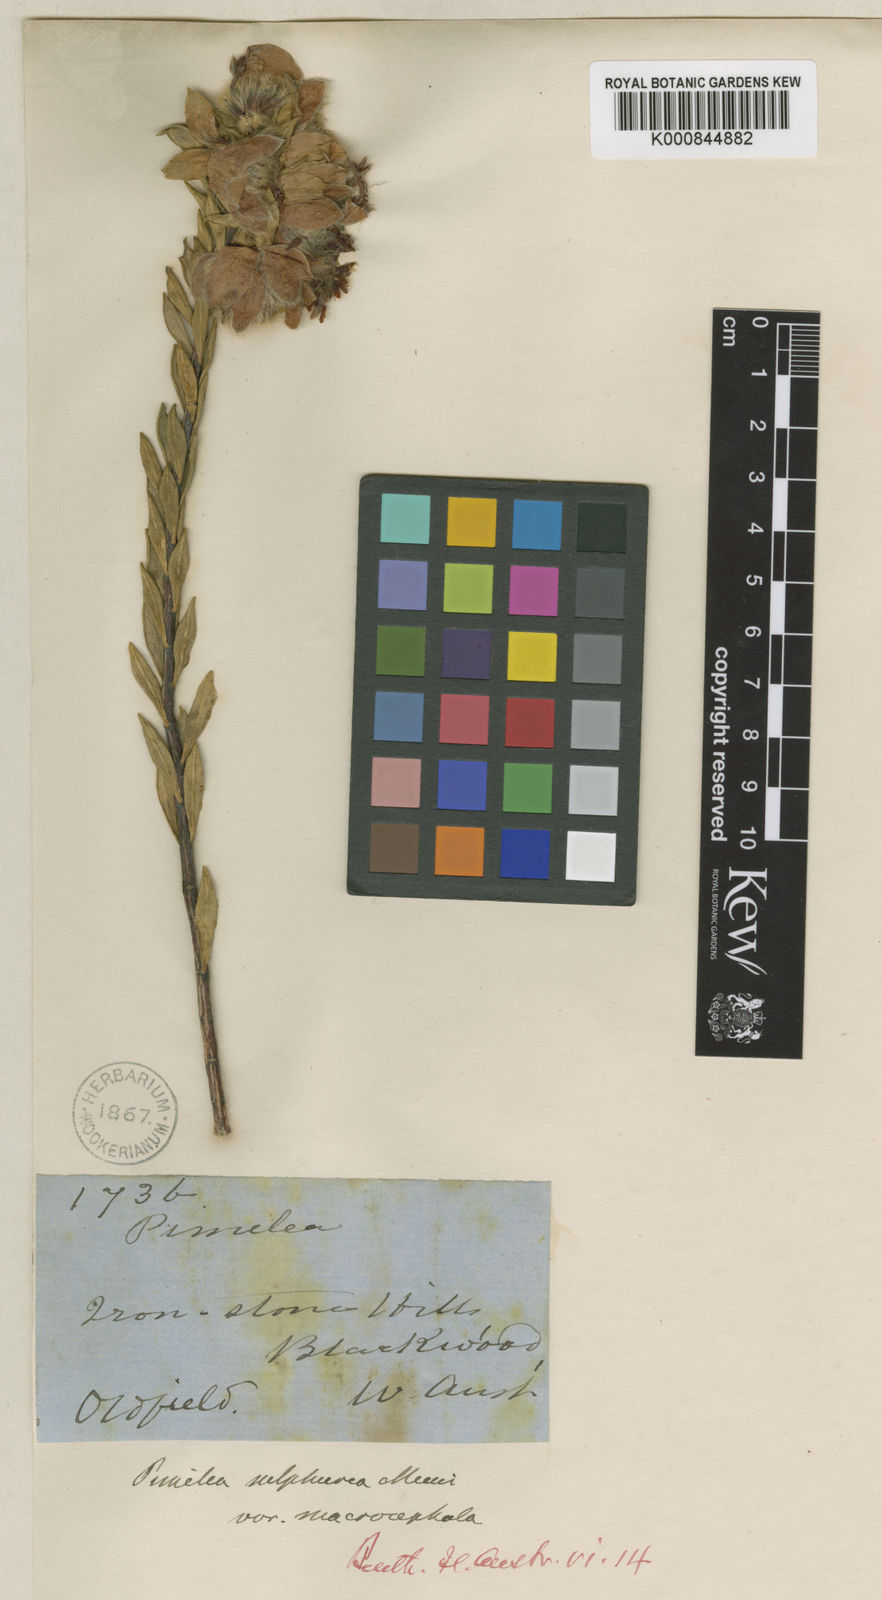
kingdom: Plantae
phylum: Tracheophyta
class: Magnoliopsida
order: Malvales
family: Thymelaeaceae
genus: Pimelea
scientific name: Pimelea suaveolens
